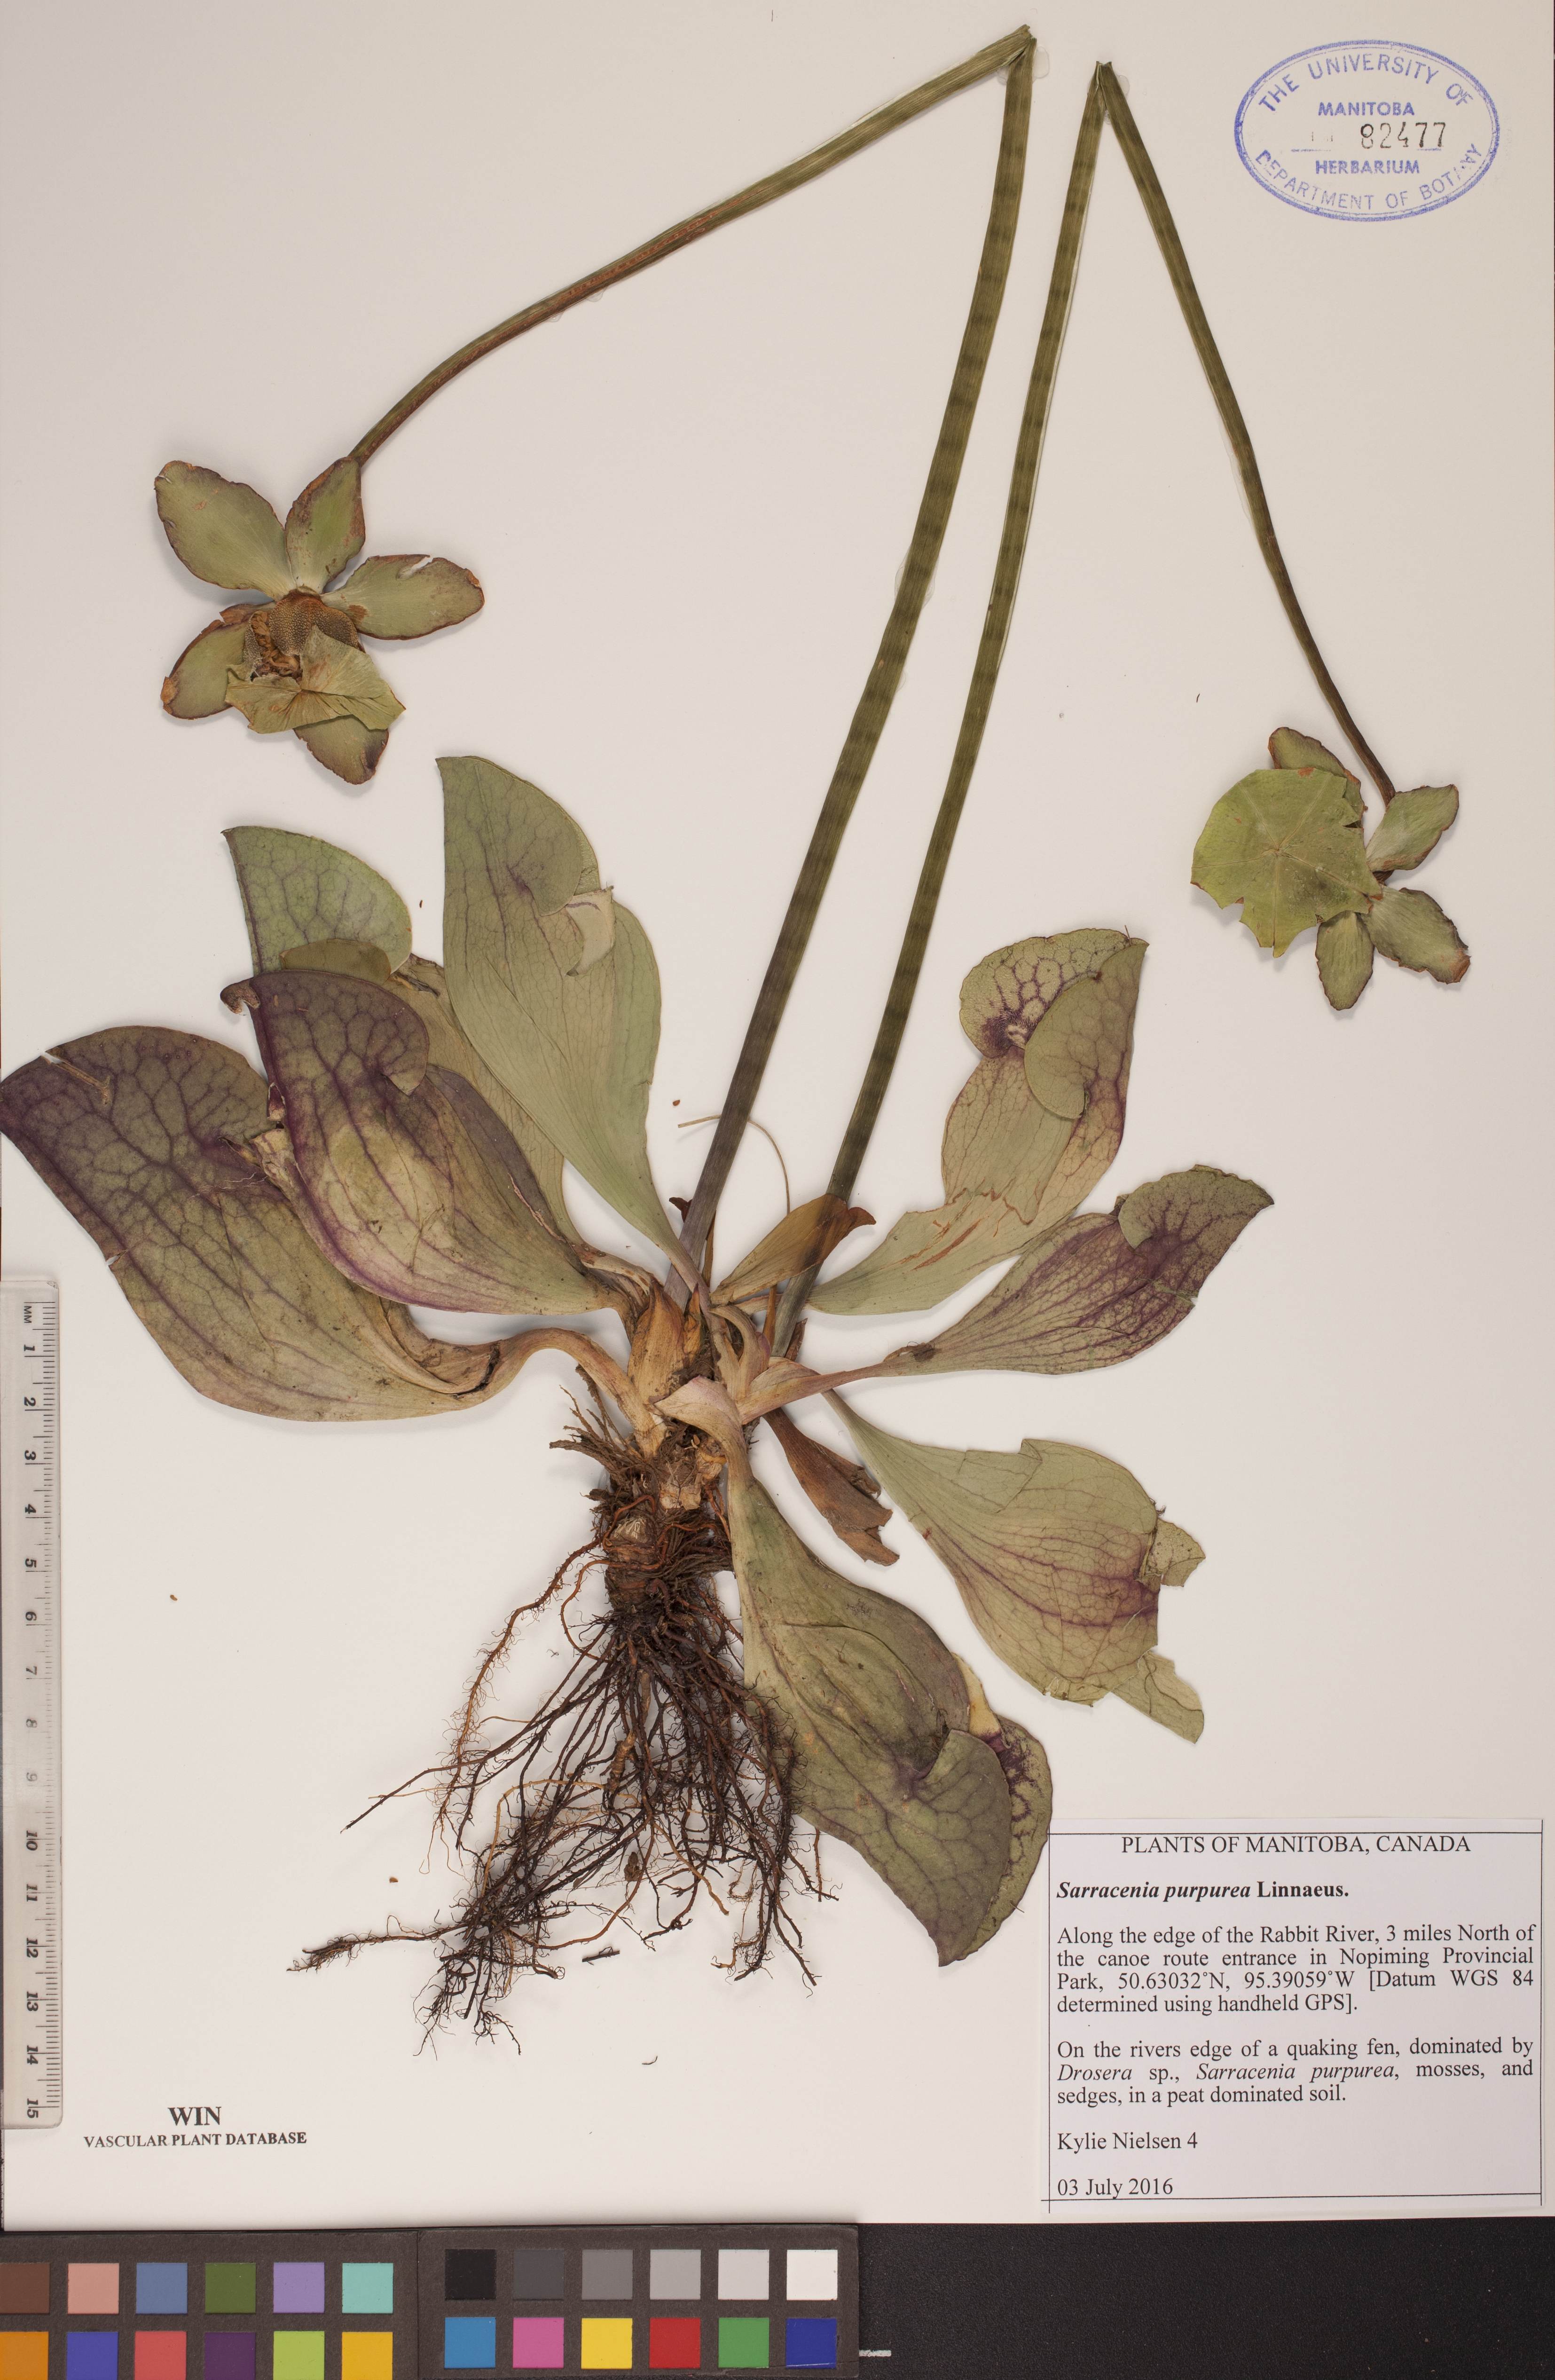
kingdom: Plantae
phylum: Tracheophyta
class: Magnoliopsida
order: Ericales
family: Sarraceniaceae
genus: Sarracenia
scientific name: Sarracenia purpurea
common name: Pitcherplant
